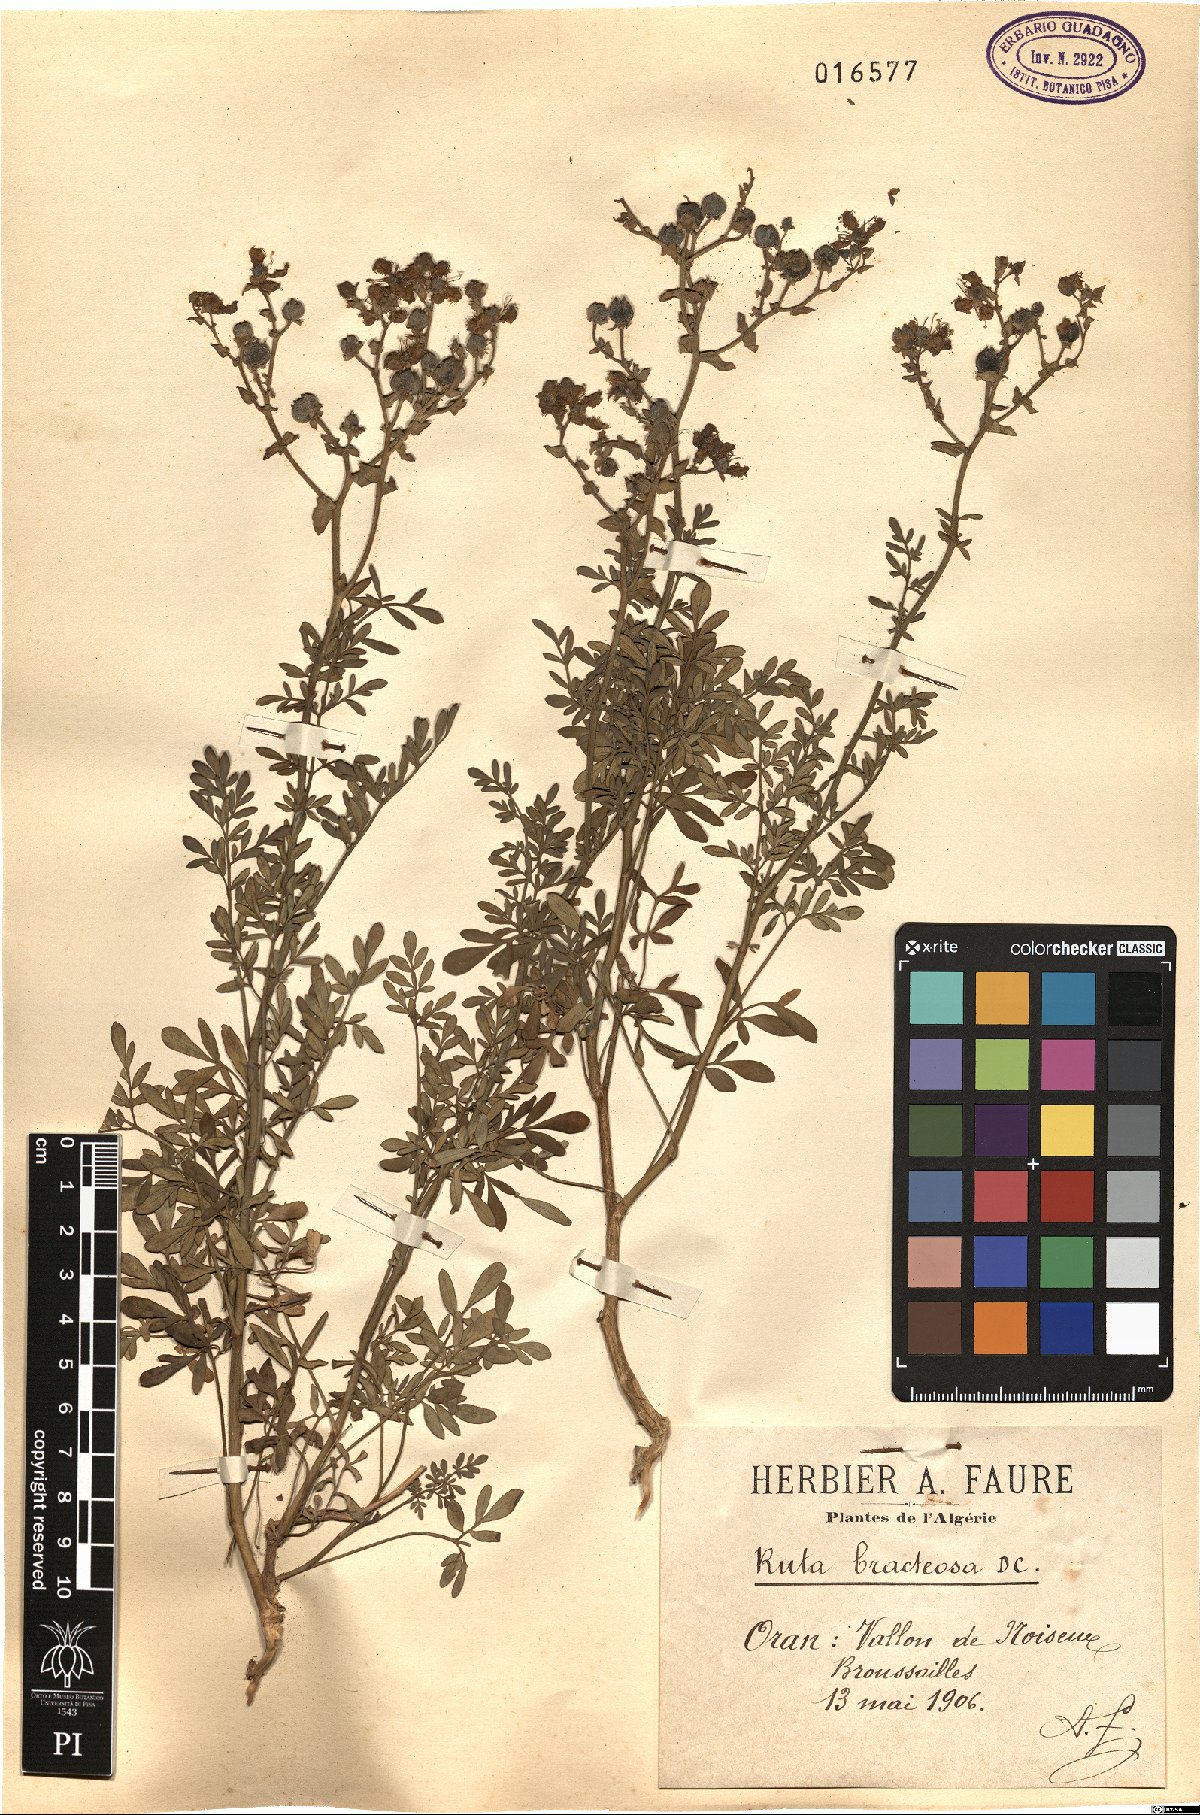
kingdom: Plantae
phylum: Tracheophyta
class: Magnoliopsida
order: Sapindales
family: Rutaceae
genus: Ruta
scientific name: Ruta chalepensis
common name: Fringed rue
